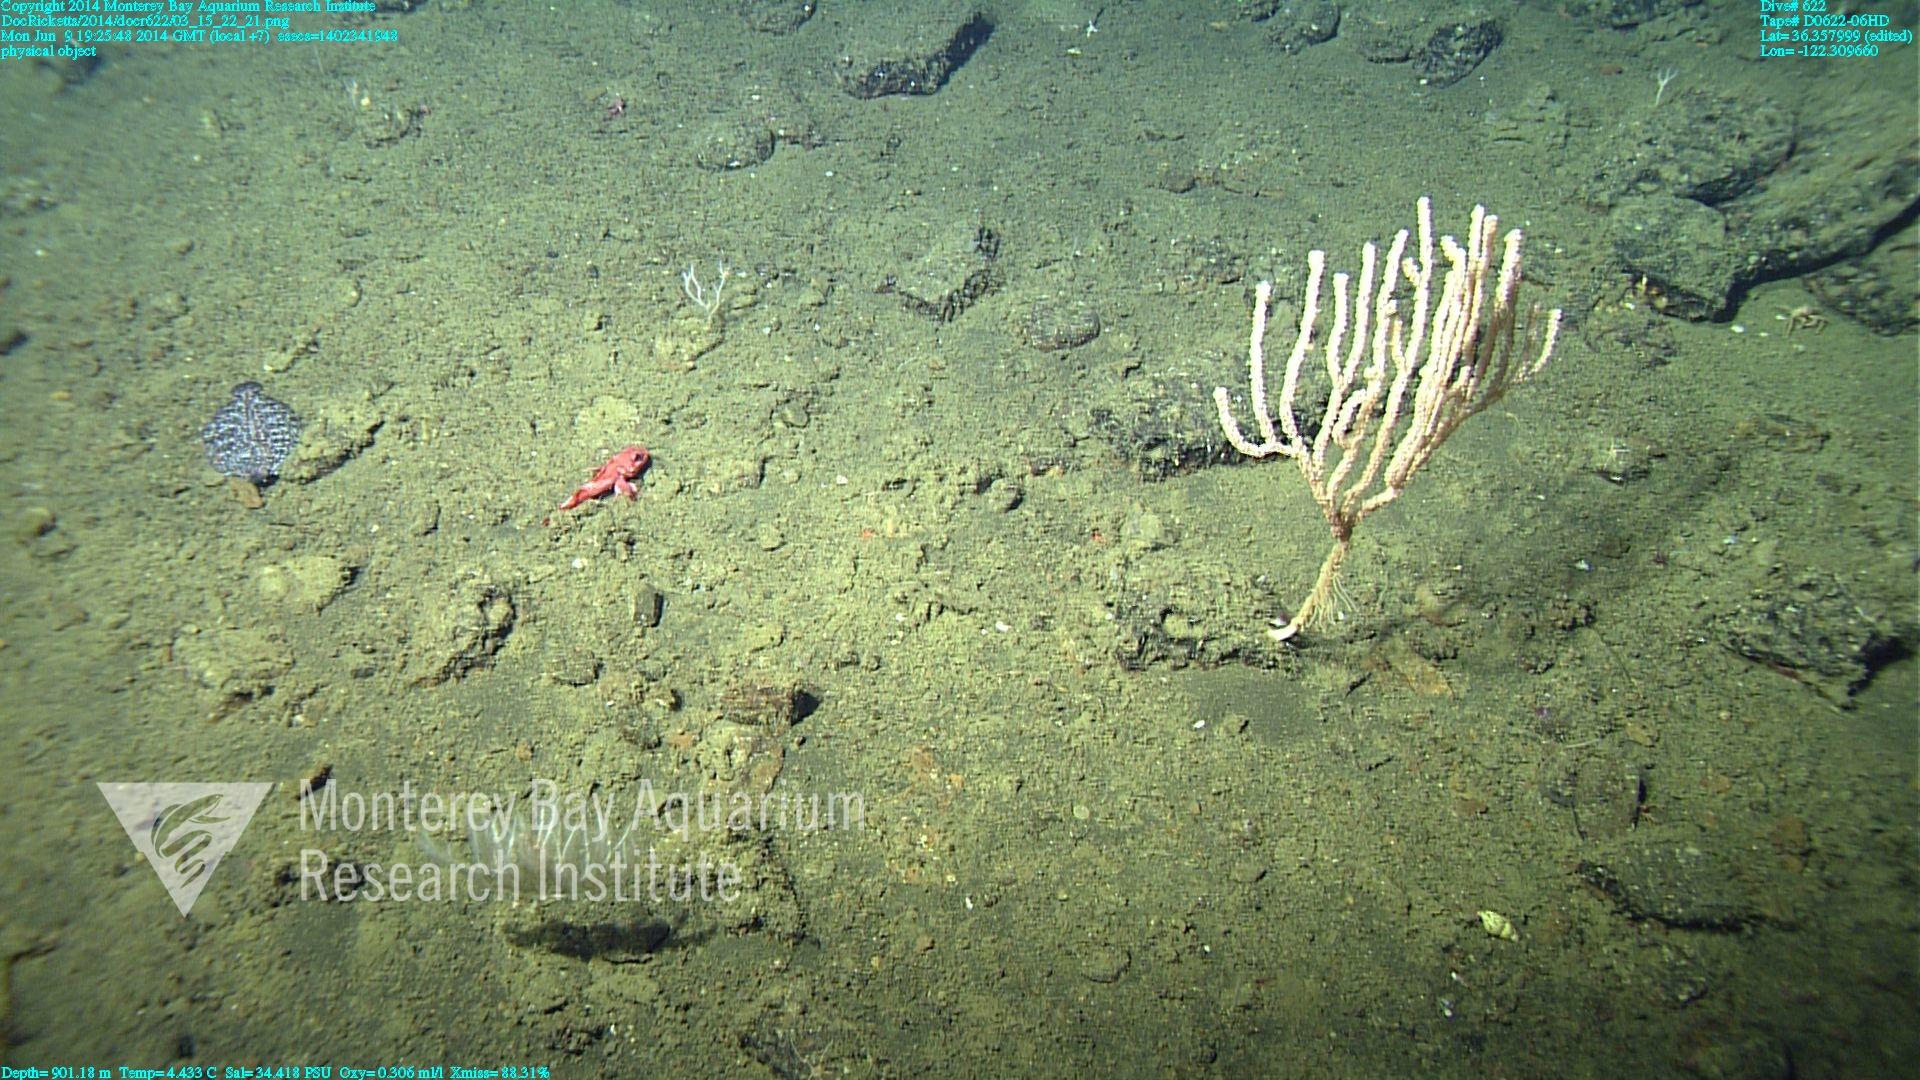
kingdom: Animalia
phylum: Cnidaria
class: Anthozoa
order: Scleralcyonacea
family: Keratoisididae
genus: Isidella
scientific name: Isidella tentaculum
